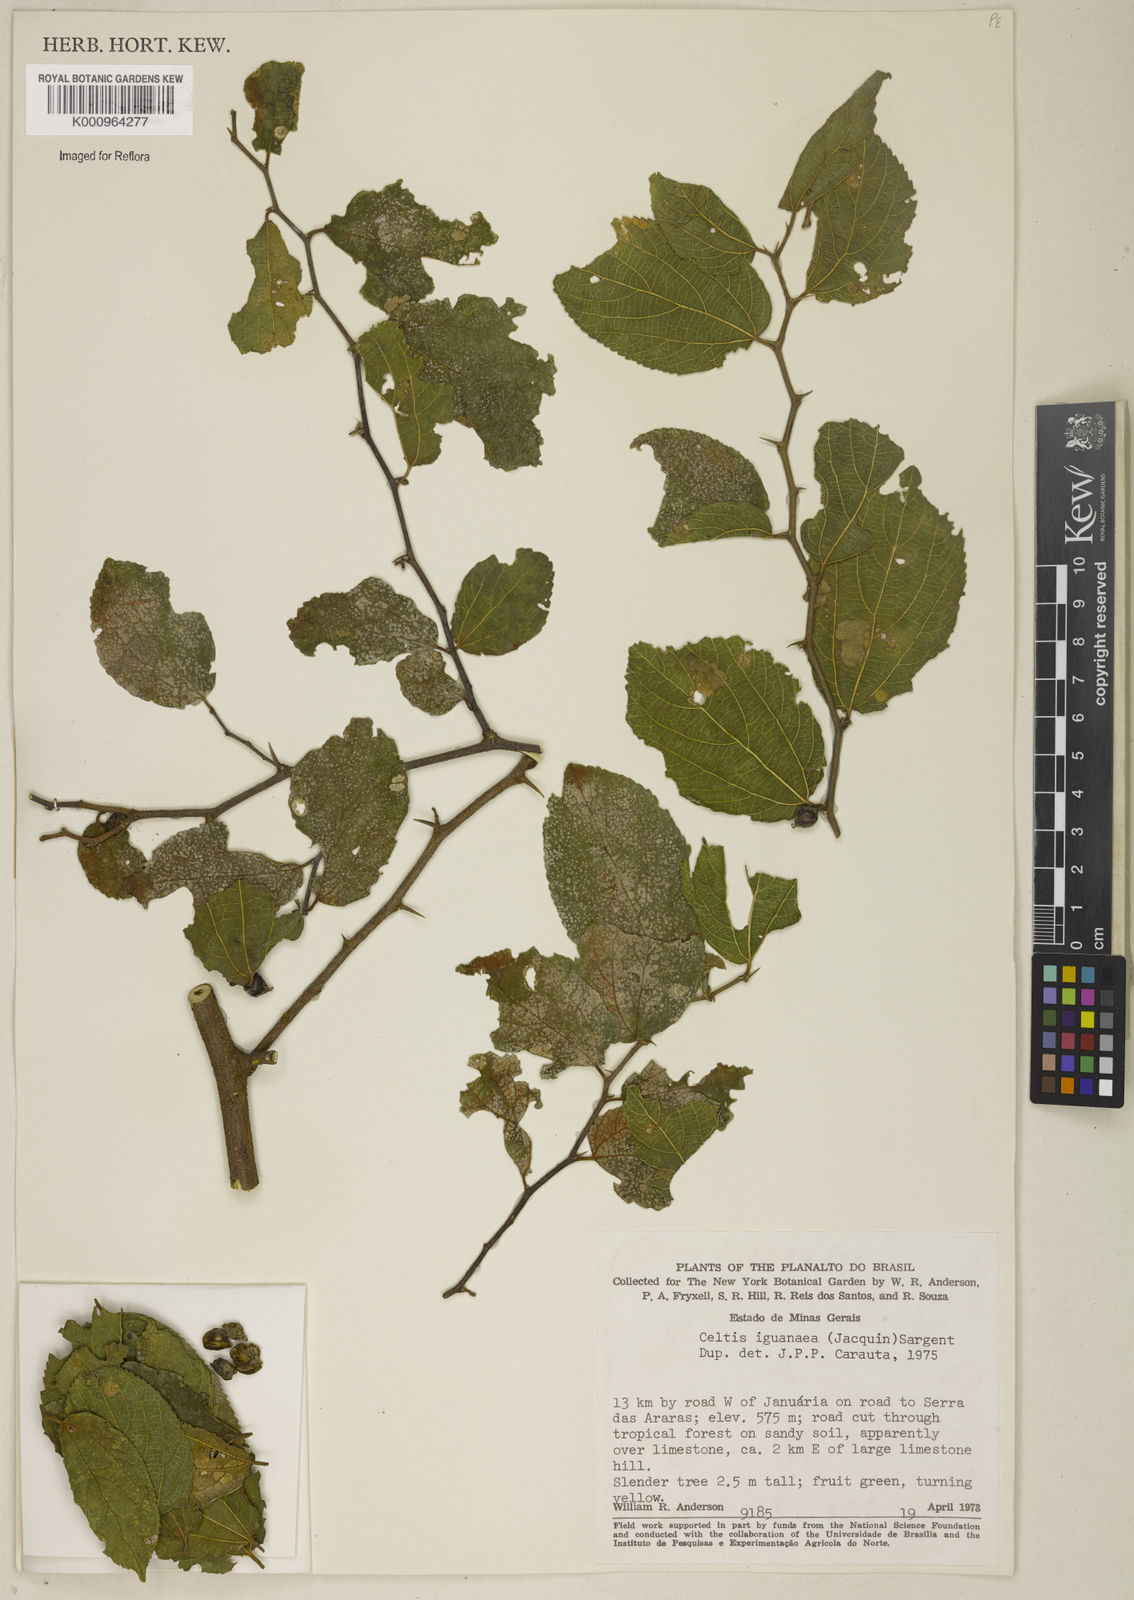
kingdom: Plantae
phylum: Tracheophyta
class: Magnoliopsida
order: Rosales
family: Cannabaceae
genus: Celtis
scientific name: Celtis iguanaea
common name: Iguana hackberry
